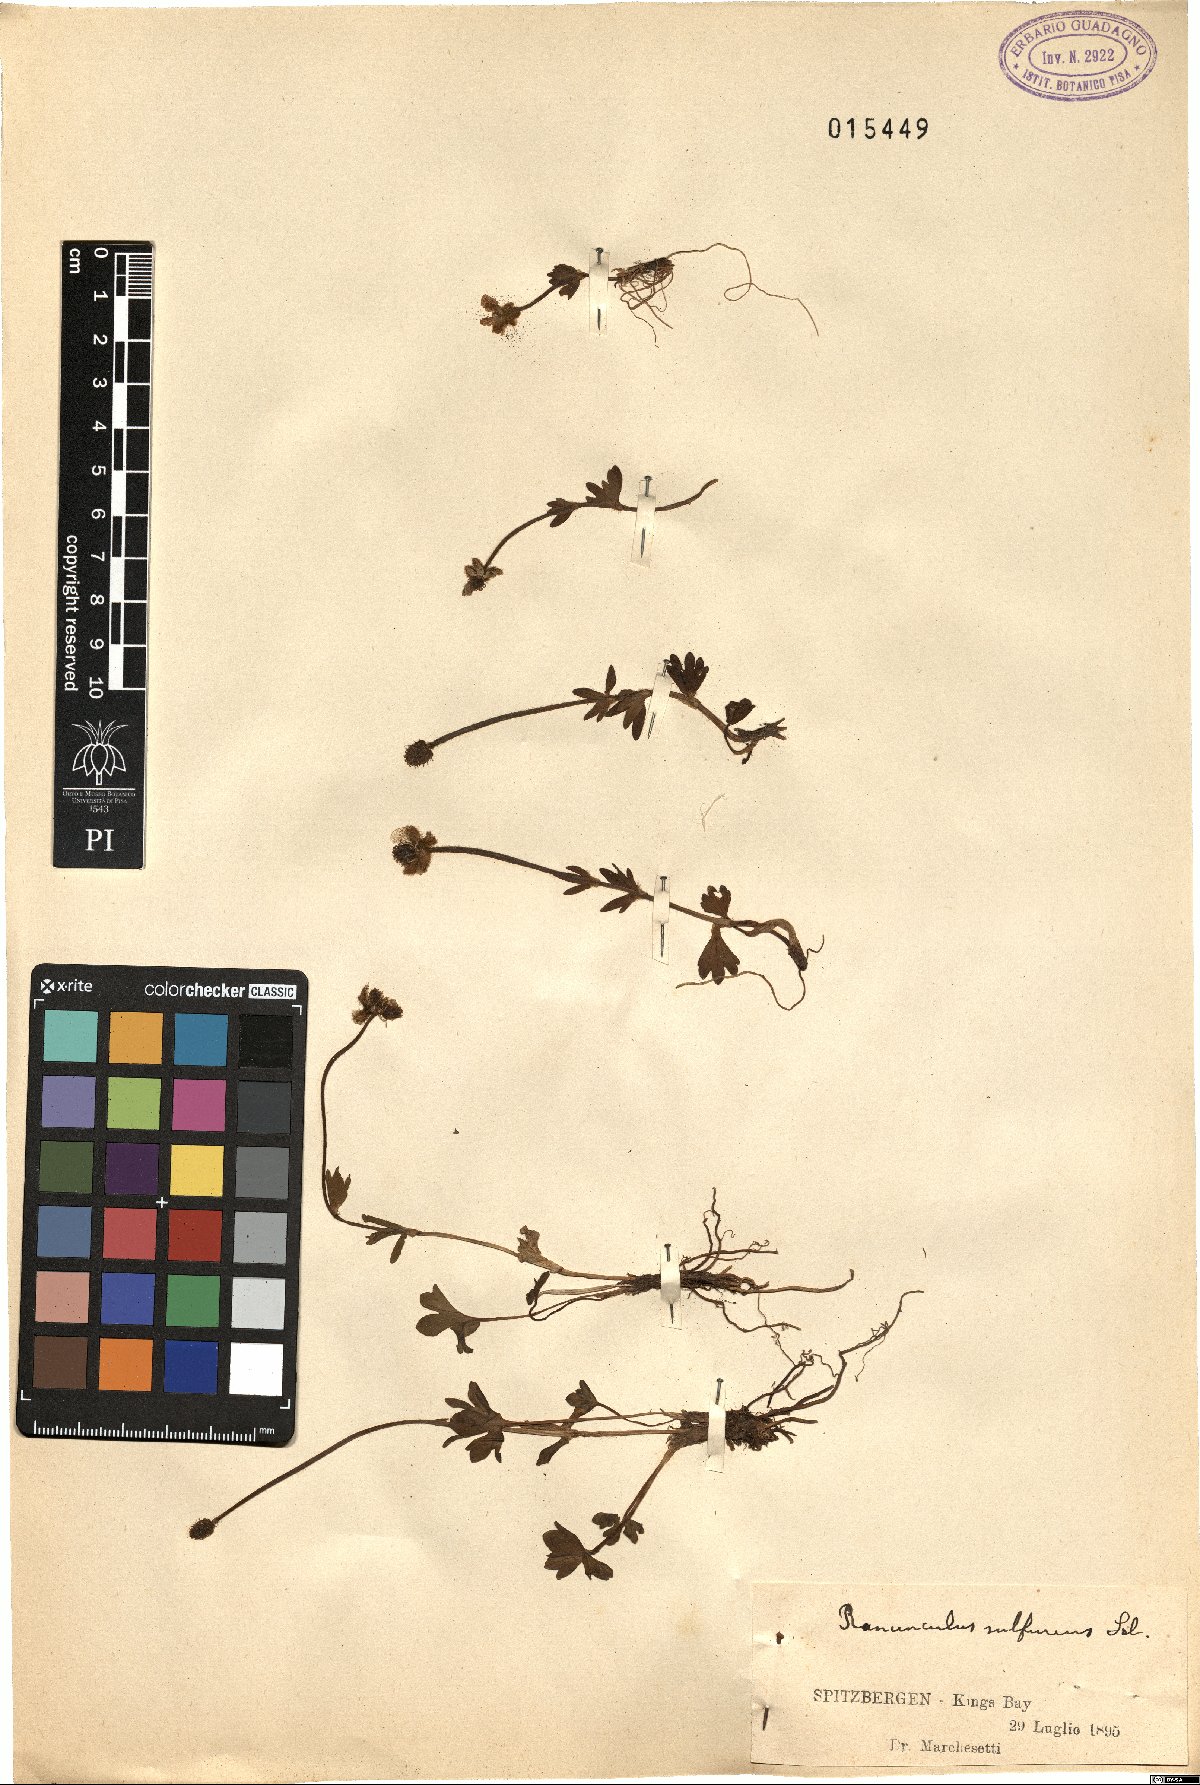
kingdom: Plantae
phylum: Tracheophyta
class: Magnoliopsida
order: Ranunculales
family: Ranunculaceae
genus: Ranunculus
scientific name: Ranunculus sulphureus
